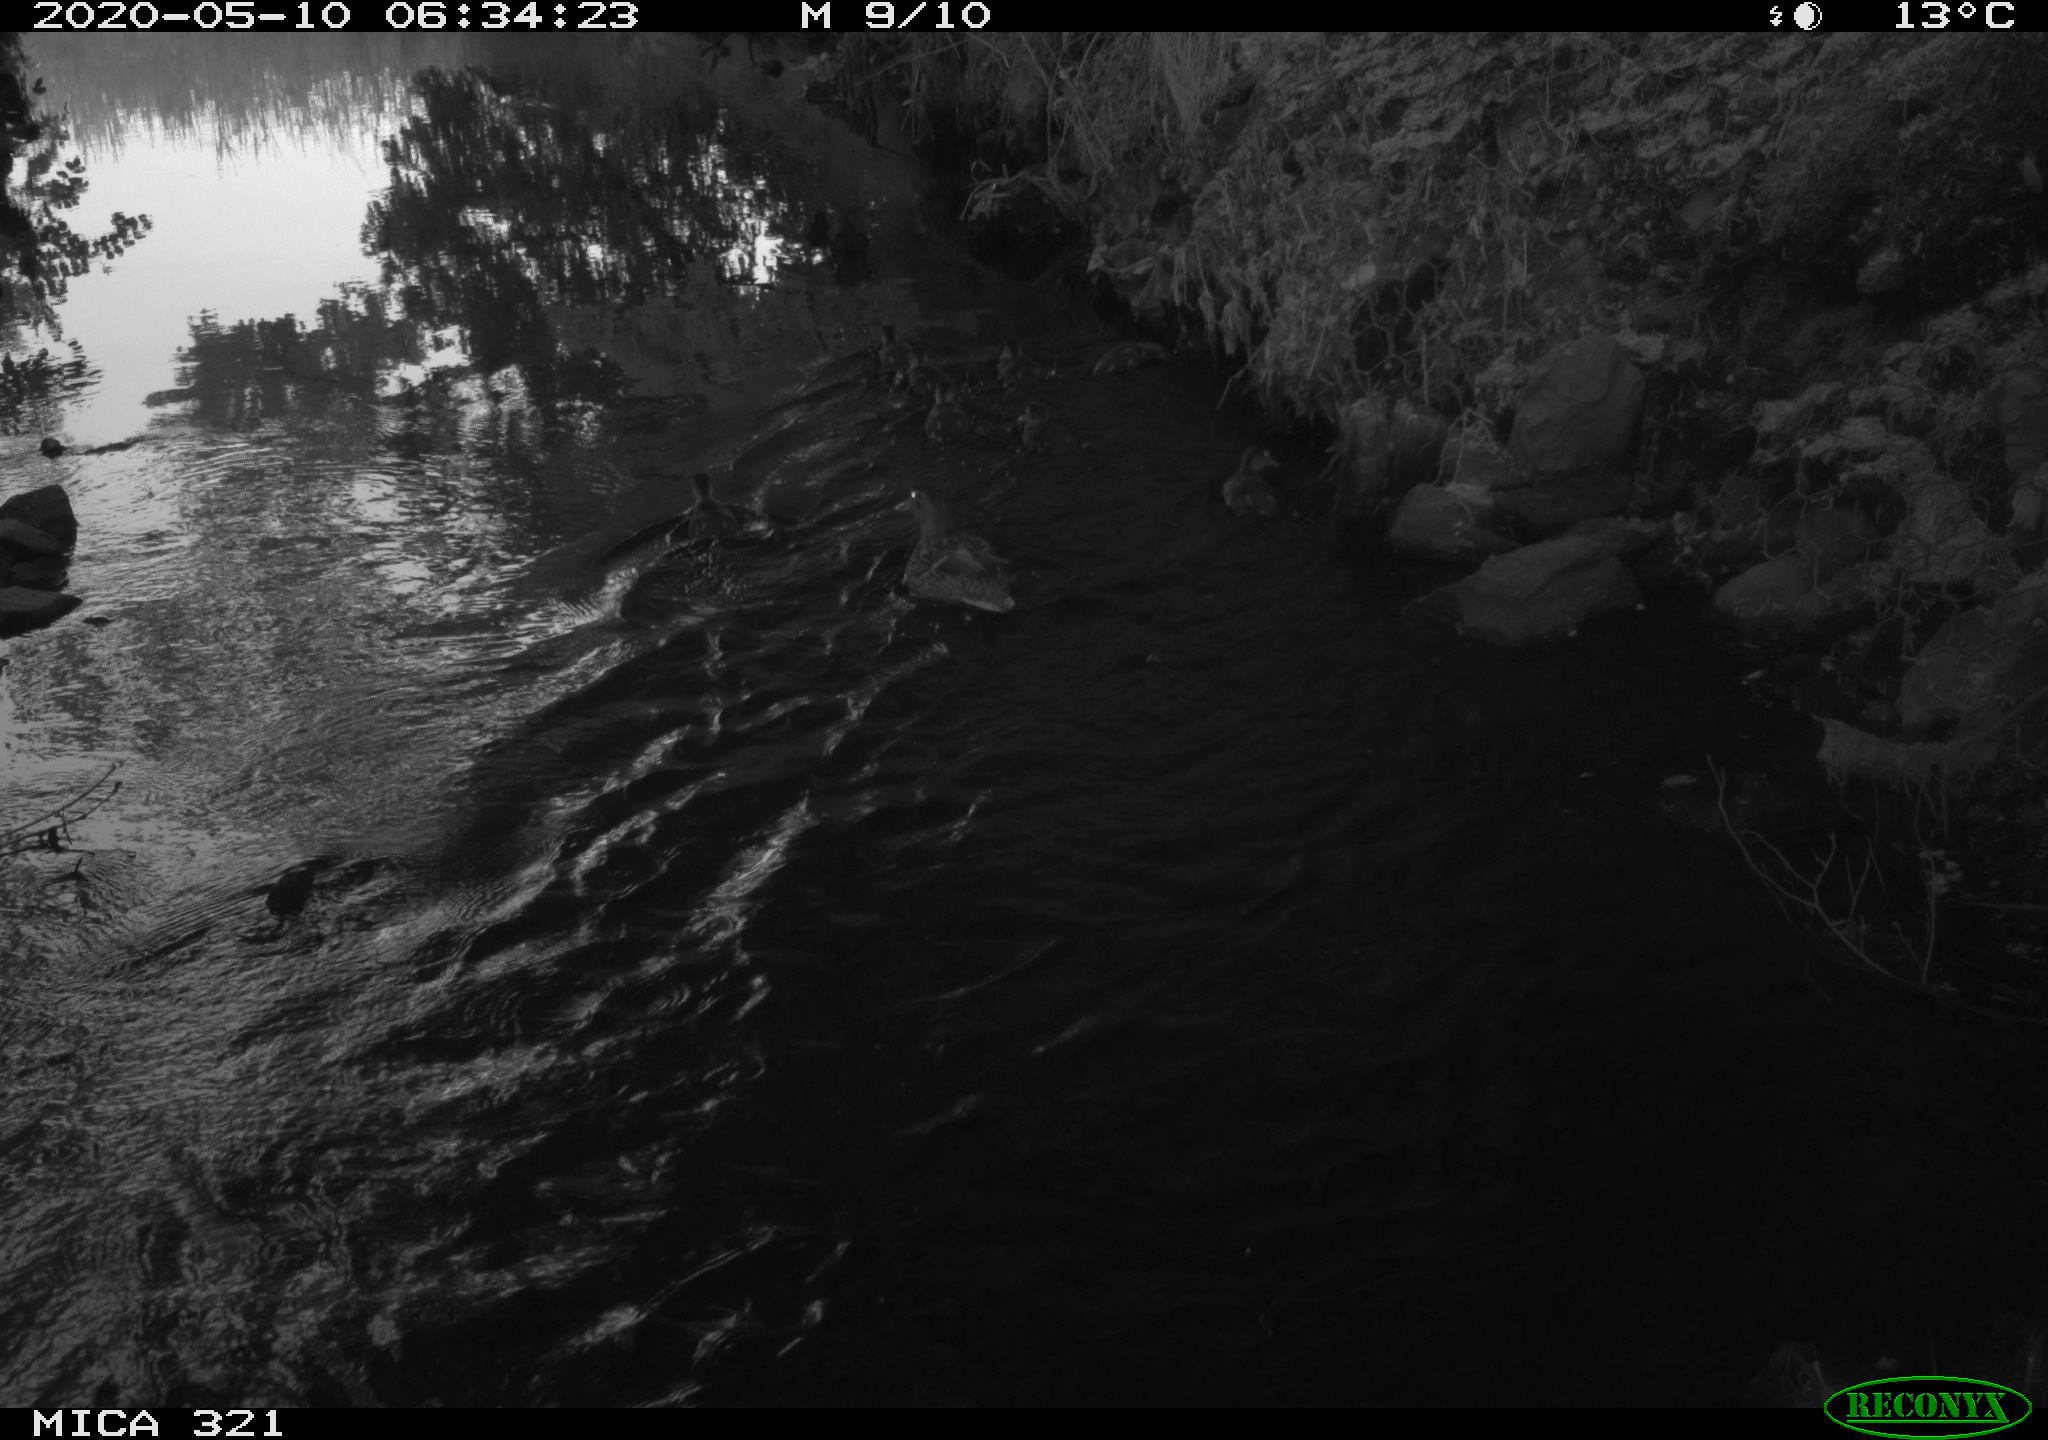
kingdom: Animalia
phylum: Chordata
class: Aves
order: Anseriformes
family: Anatidae
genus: Anas
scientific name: Anas platyrhynchos
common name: Mallard
